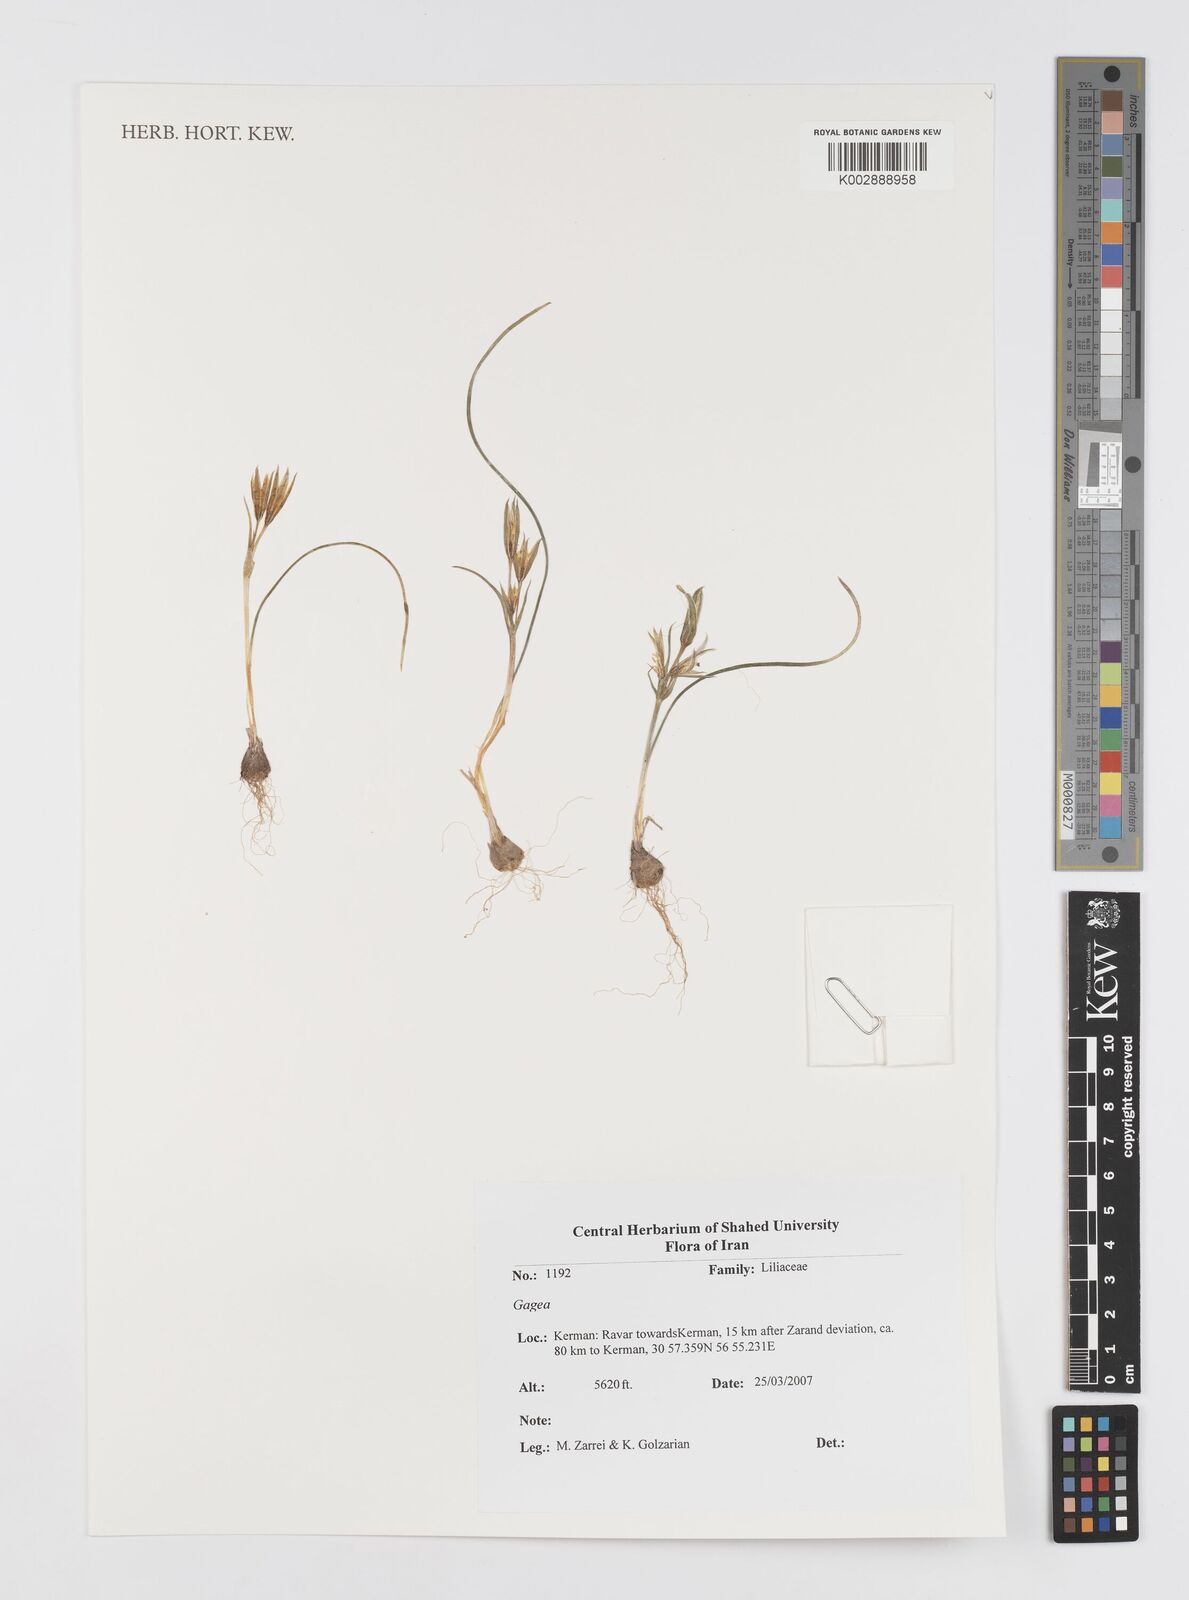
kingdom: Plantae
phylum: Tracheophyta
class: Liliopsida
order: Liliales
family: Liliaceae
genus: Gagea
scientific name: Gagea
